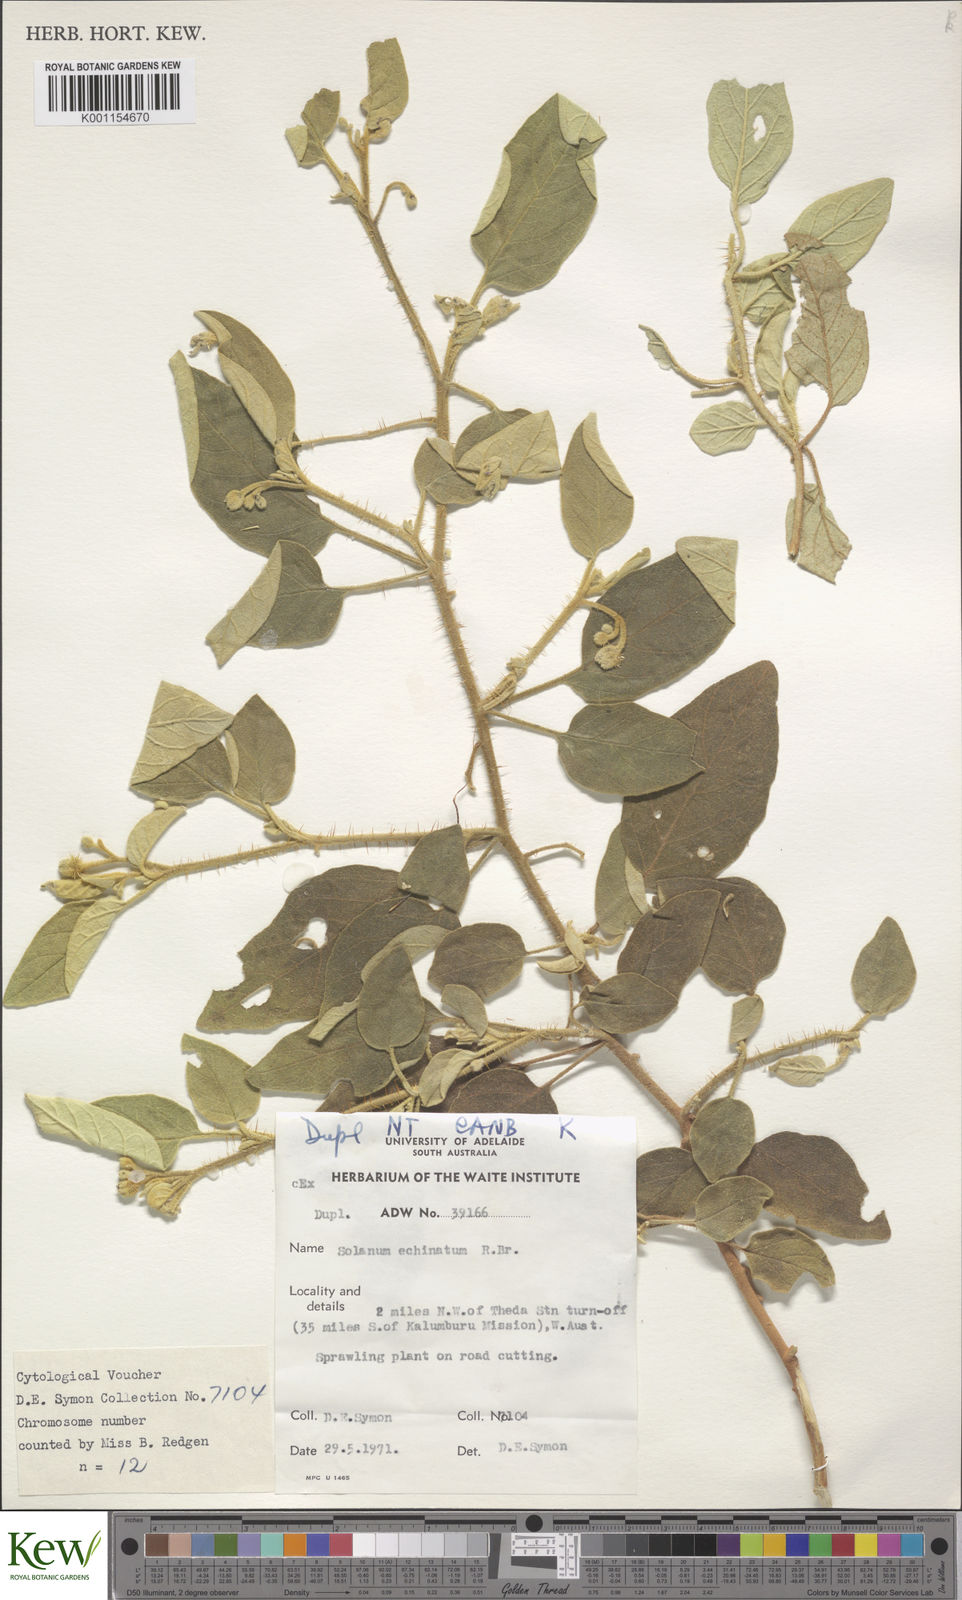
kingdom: Plantae
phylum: Tracheophyta
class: Magnoliopsida
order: Solanales
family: Solanaceae
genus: Solanum
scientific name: Solanum echinatum
